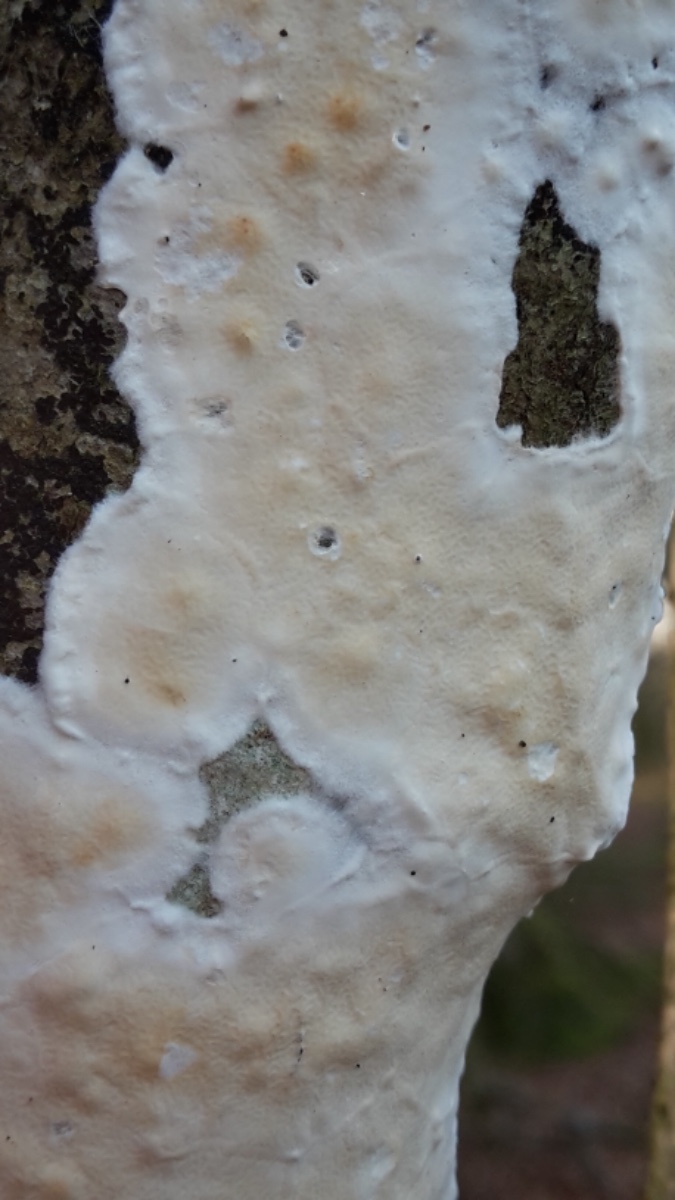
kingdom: Fungi
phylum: Basidiomycota
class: Agaricomycetes
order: Polyporales
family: Irpicaceae
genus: Byssomerulius
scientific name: Byssomerulius corium
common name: læder-åresvamp
